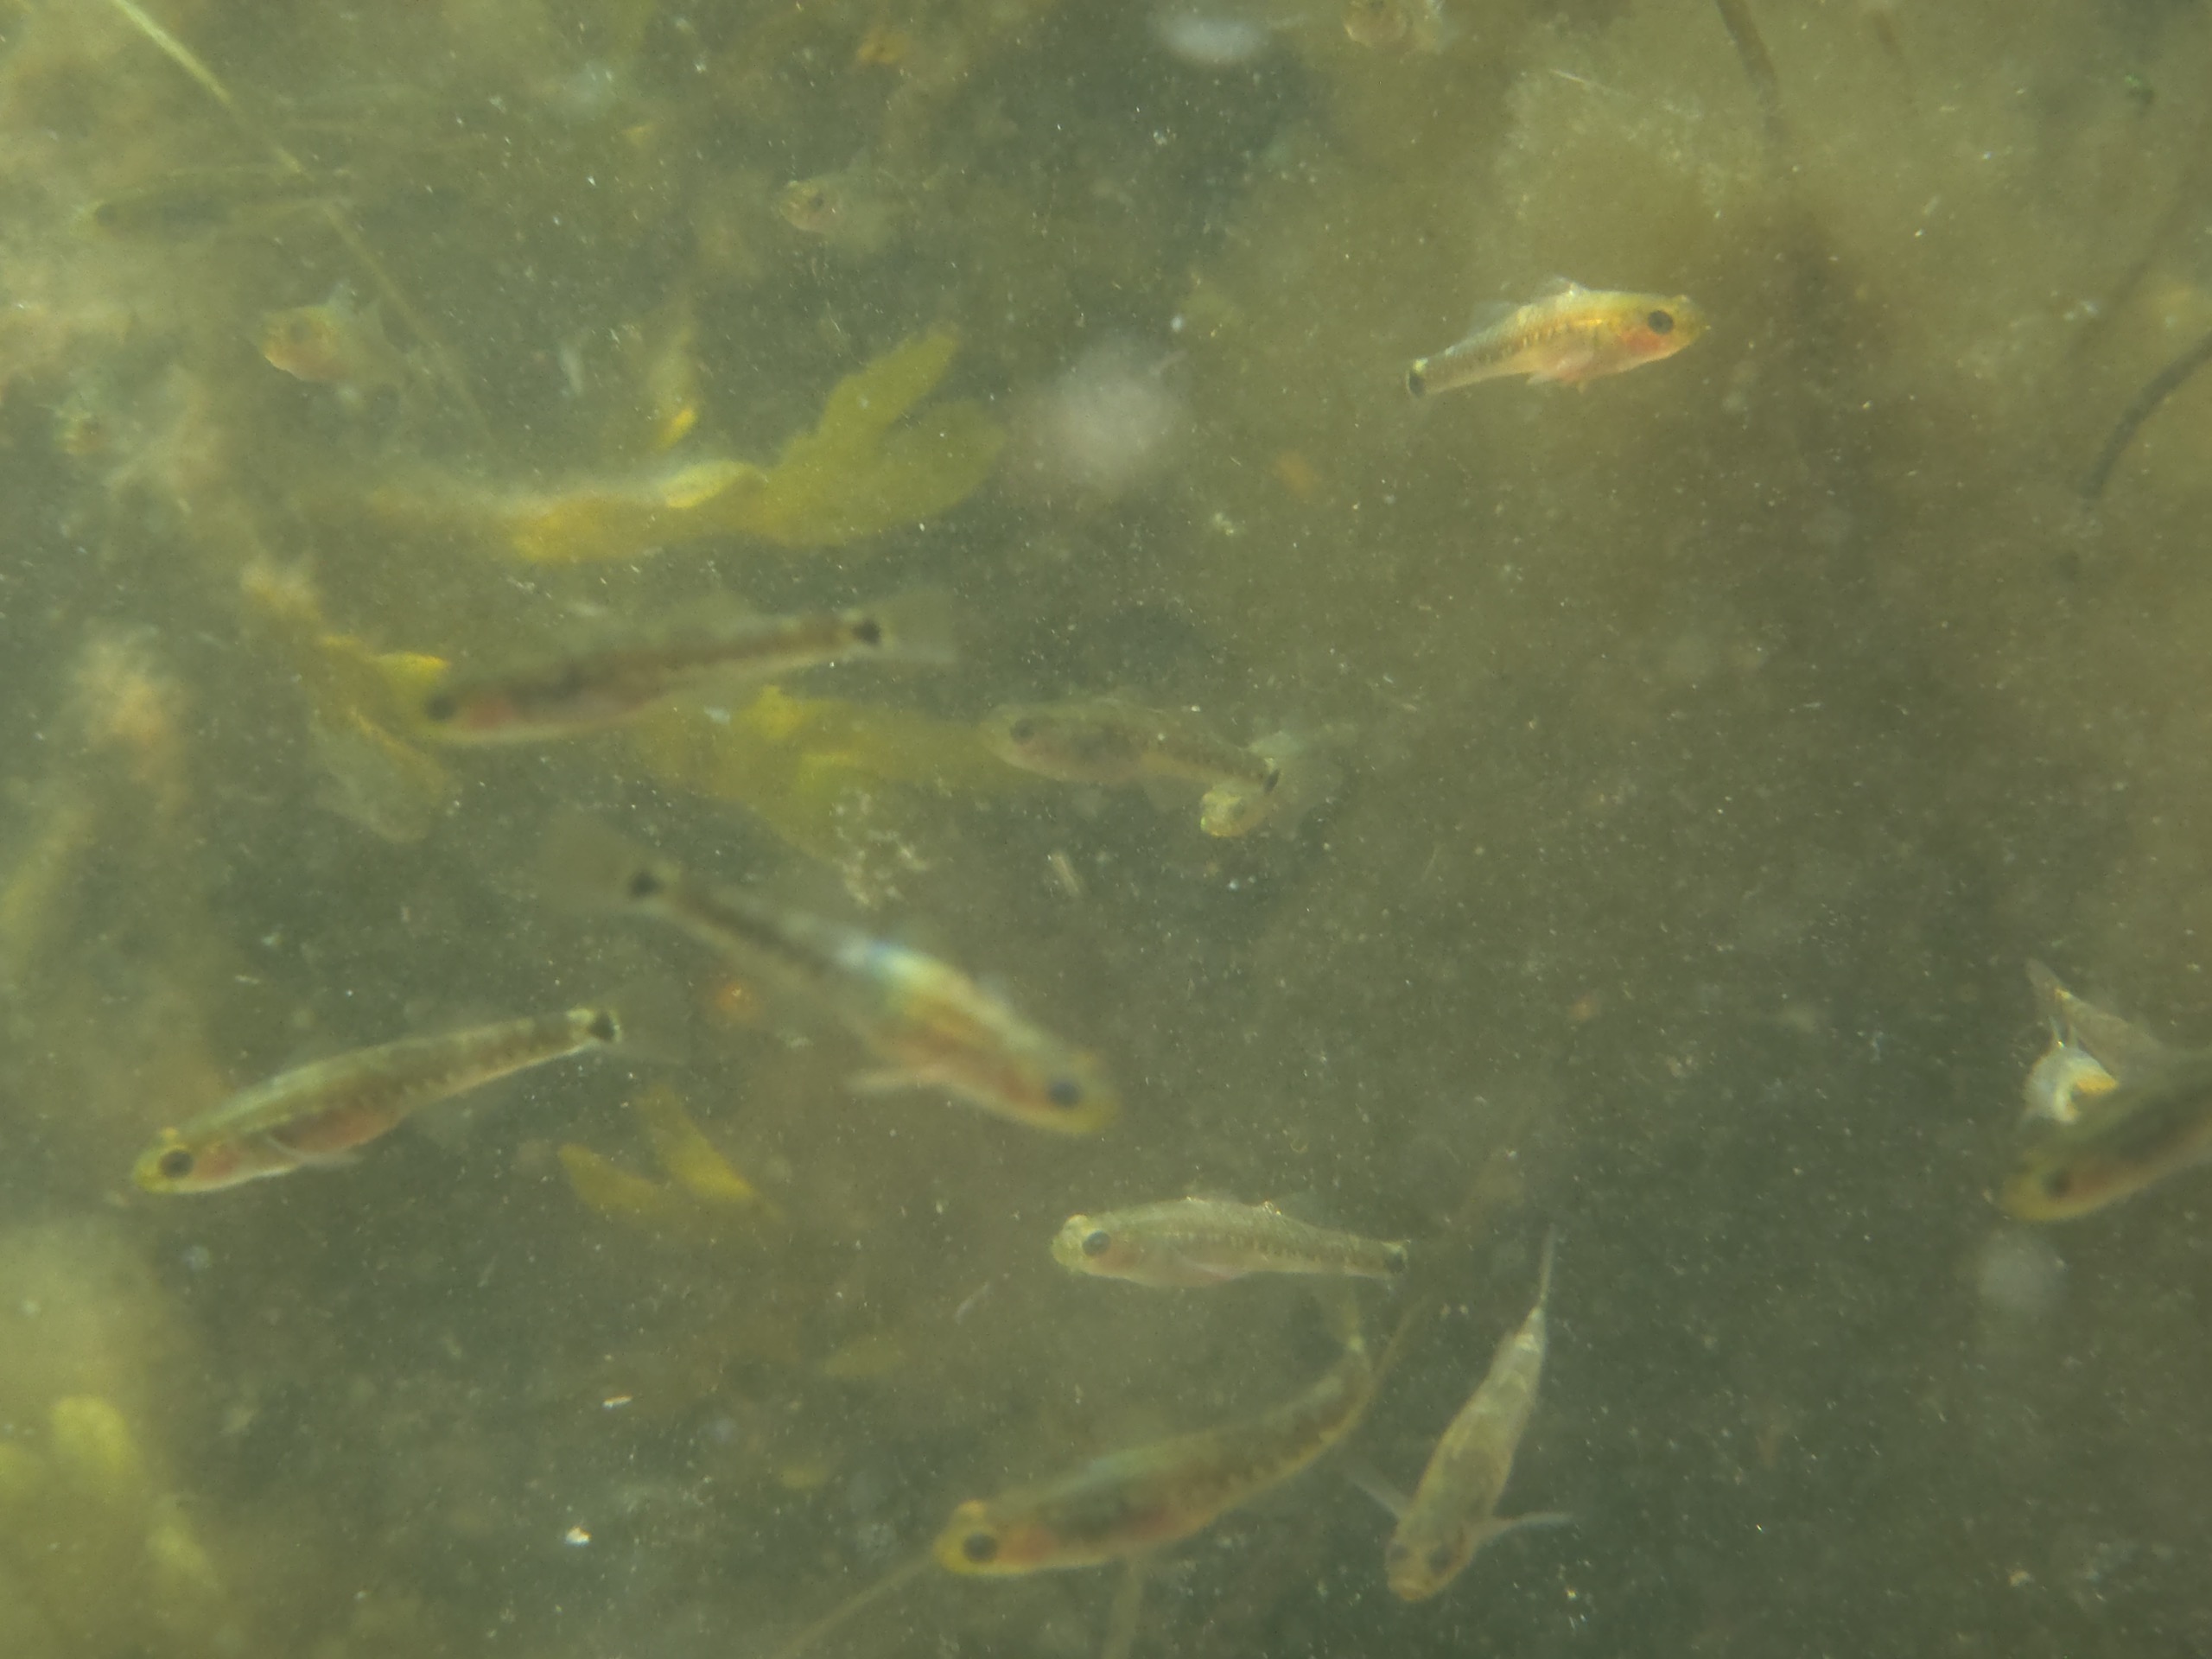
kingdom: Animalia
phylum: Chordata
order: Perciformes
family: Gobiidae
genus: Gobiusculus
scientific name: Gobiusculus flavescens
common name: Toplettet kutling
